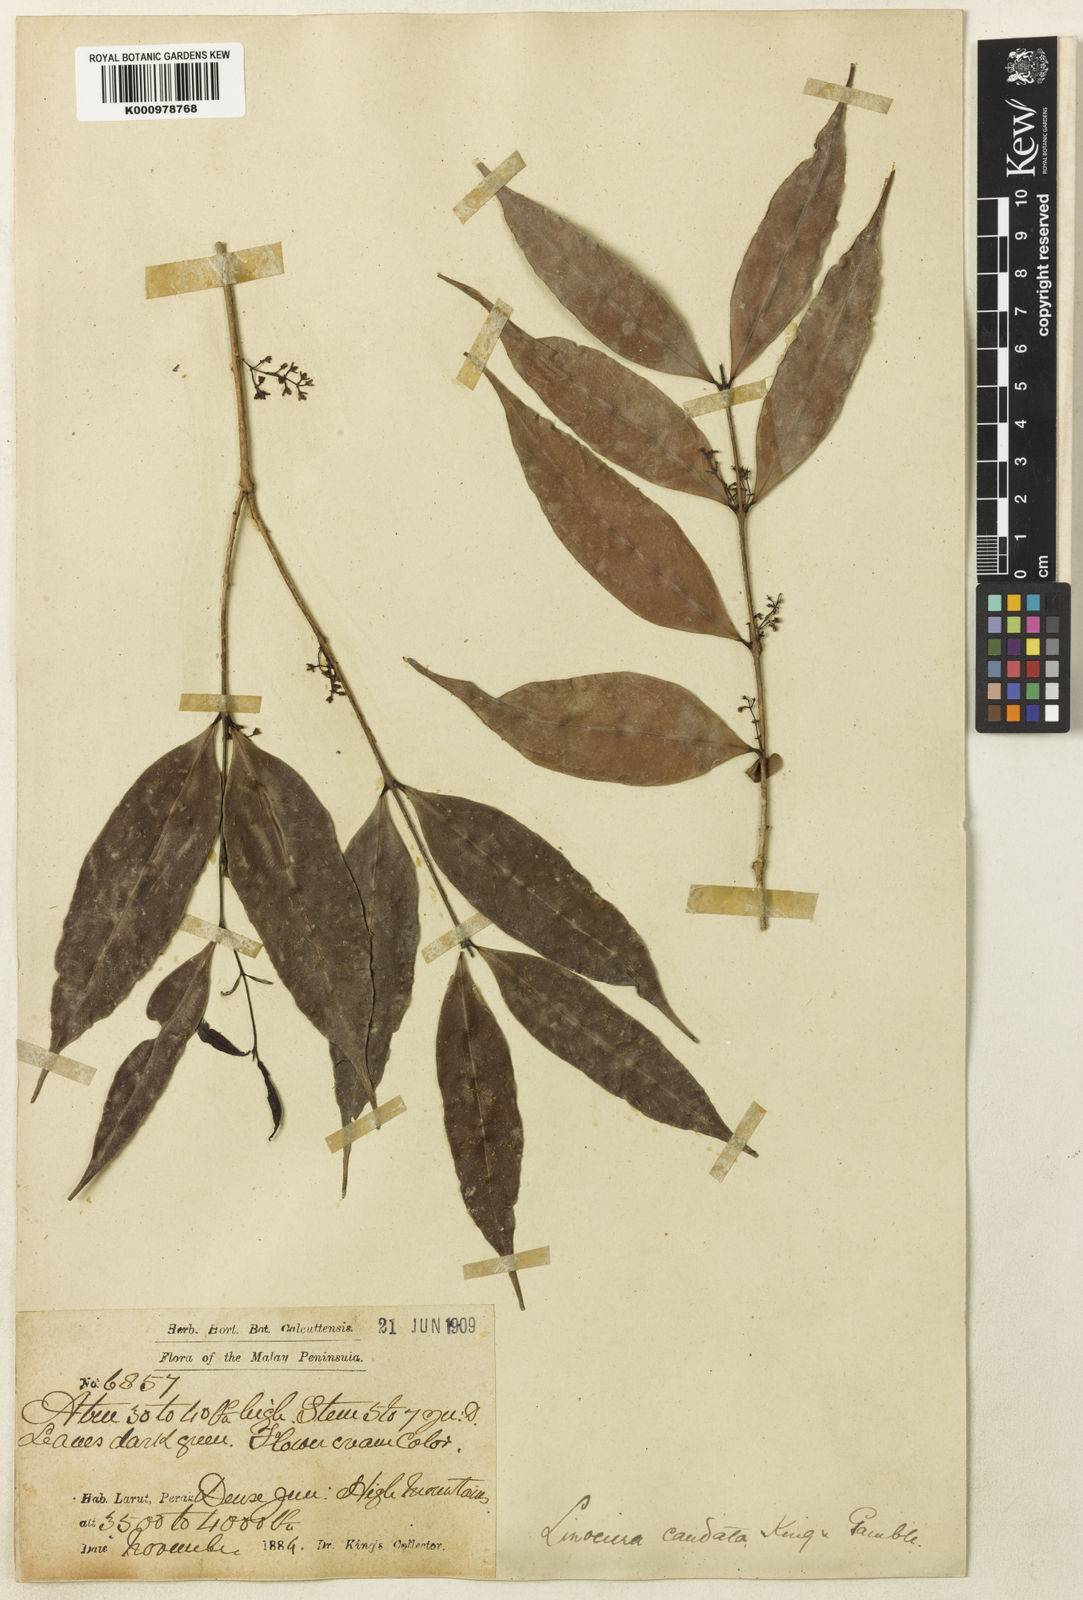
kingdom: Plantae
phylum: Tracheophyta
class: Magnoliopsida
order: Lamiales
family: Oleaceae
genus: Chionanthus
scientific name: Chionanthus caudifolius
